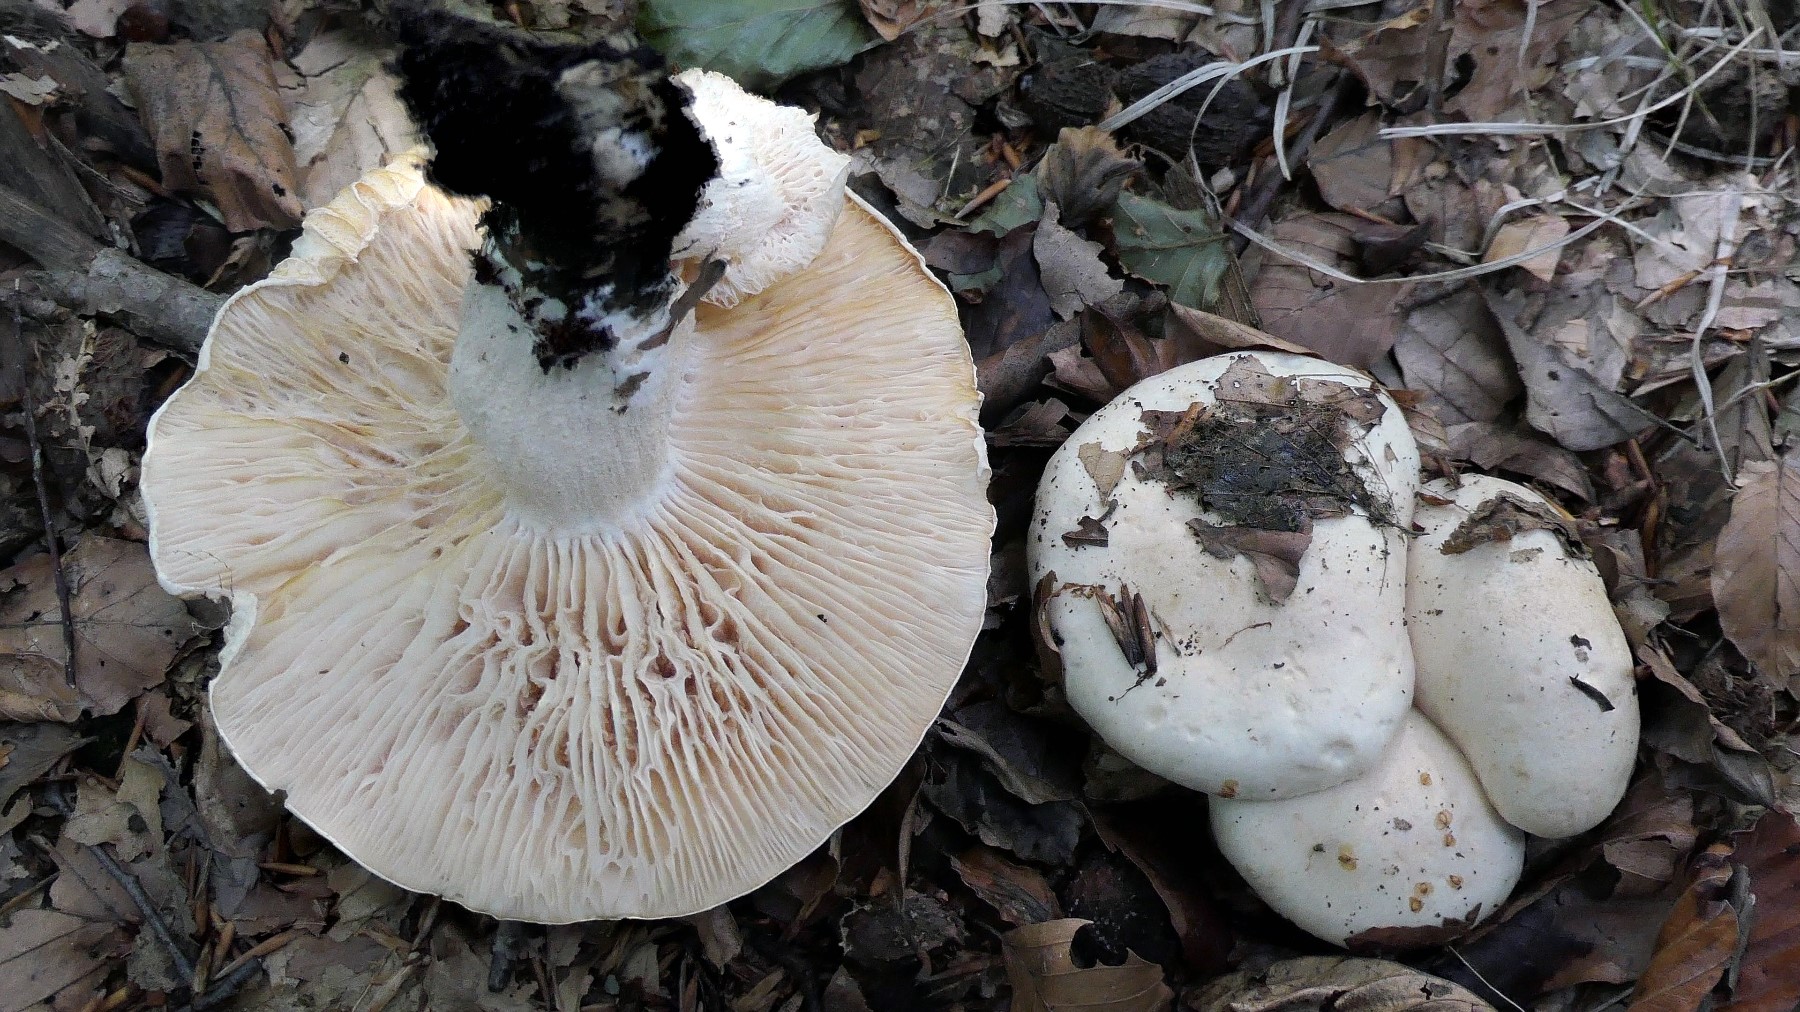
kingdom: Fungi
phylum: Basidiomycota
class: Agaricomycetes
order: Agaricales
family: Hygrophoraceae
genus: Hygrophorus
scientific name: Hygrophorus penarius
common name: spiselig sneglehat
